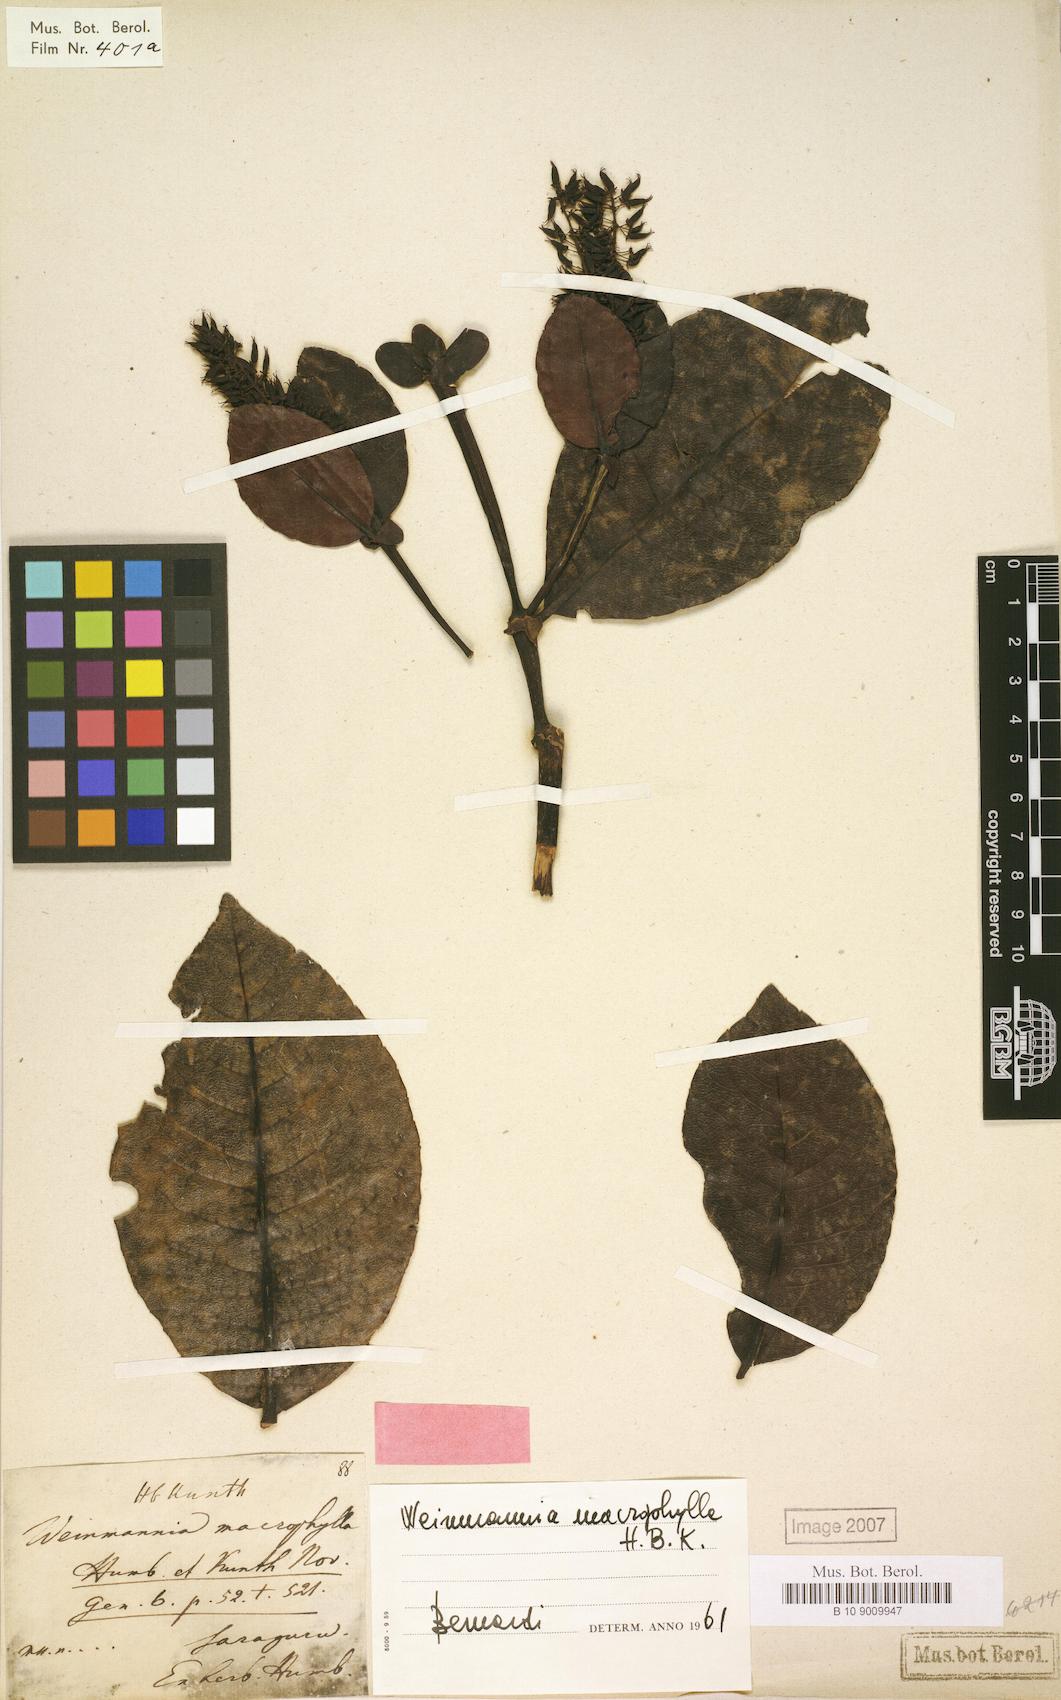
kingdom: Plantae
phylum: Tracheophyta
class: Magnoliopsida
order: Oxalidales
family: Cunoniaceae
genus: Weinmannia
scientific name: Weinmannia macrophylla
